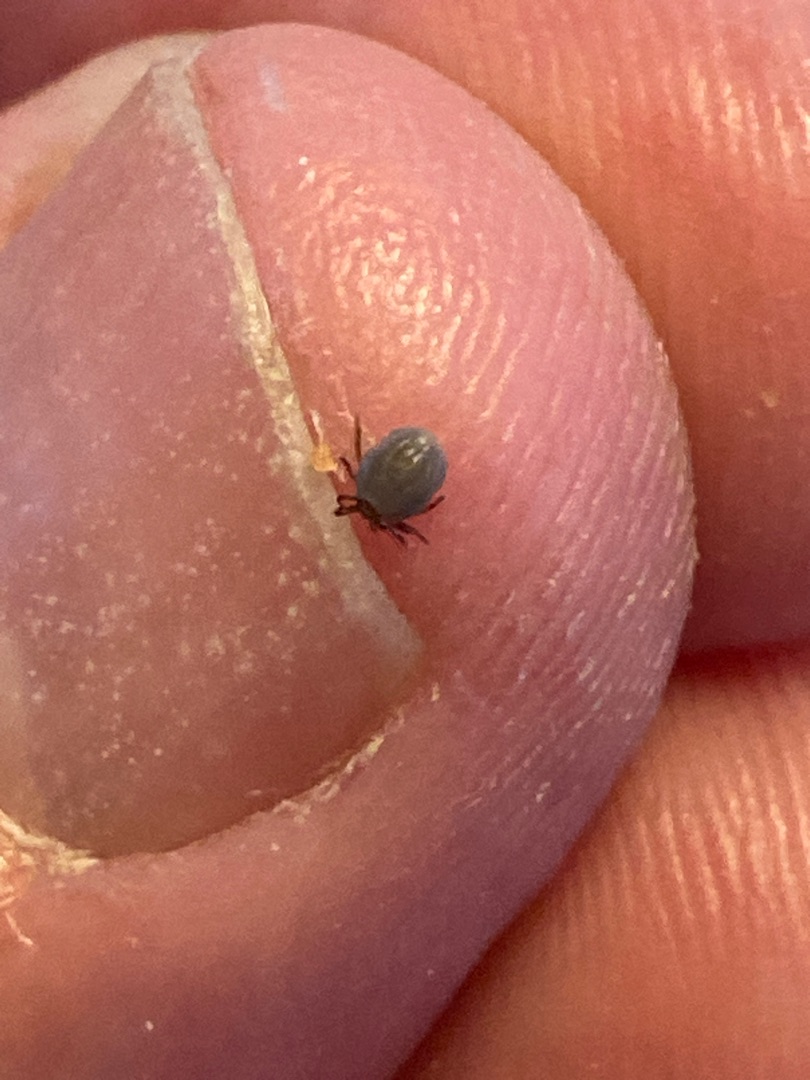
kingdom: Animalia
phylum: Arthropoda
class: Arachnida
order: Ixodida
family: Ixodidae
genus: Ixodes
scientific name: Ixodes ricinus
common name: Skovflåt
